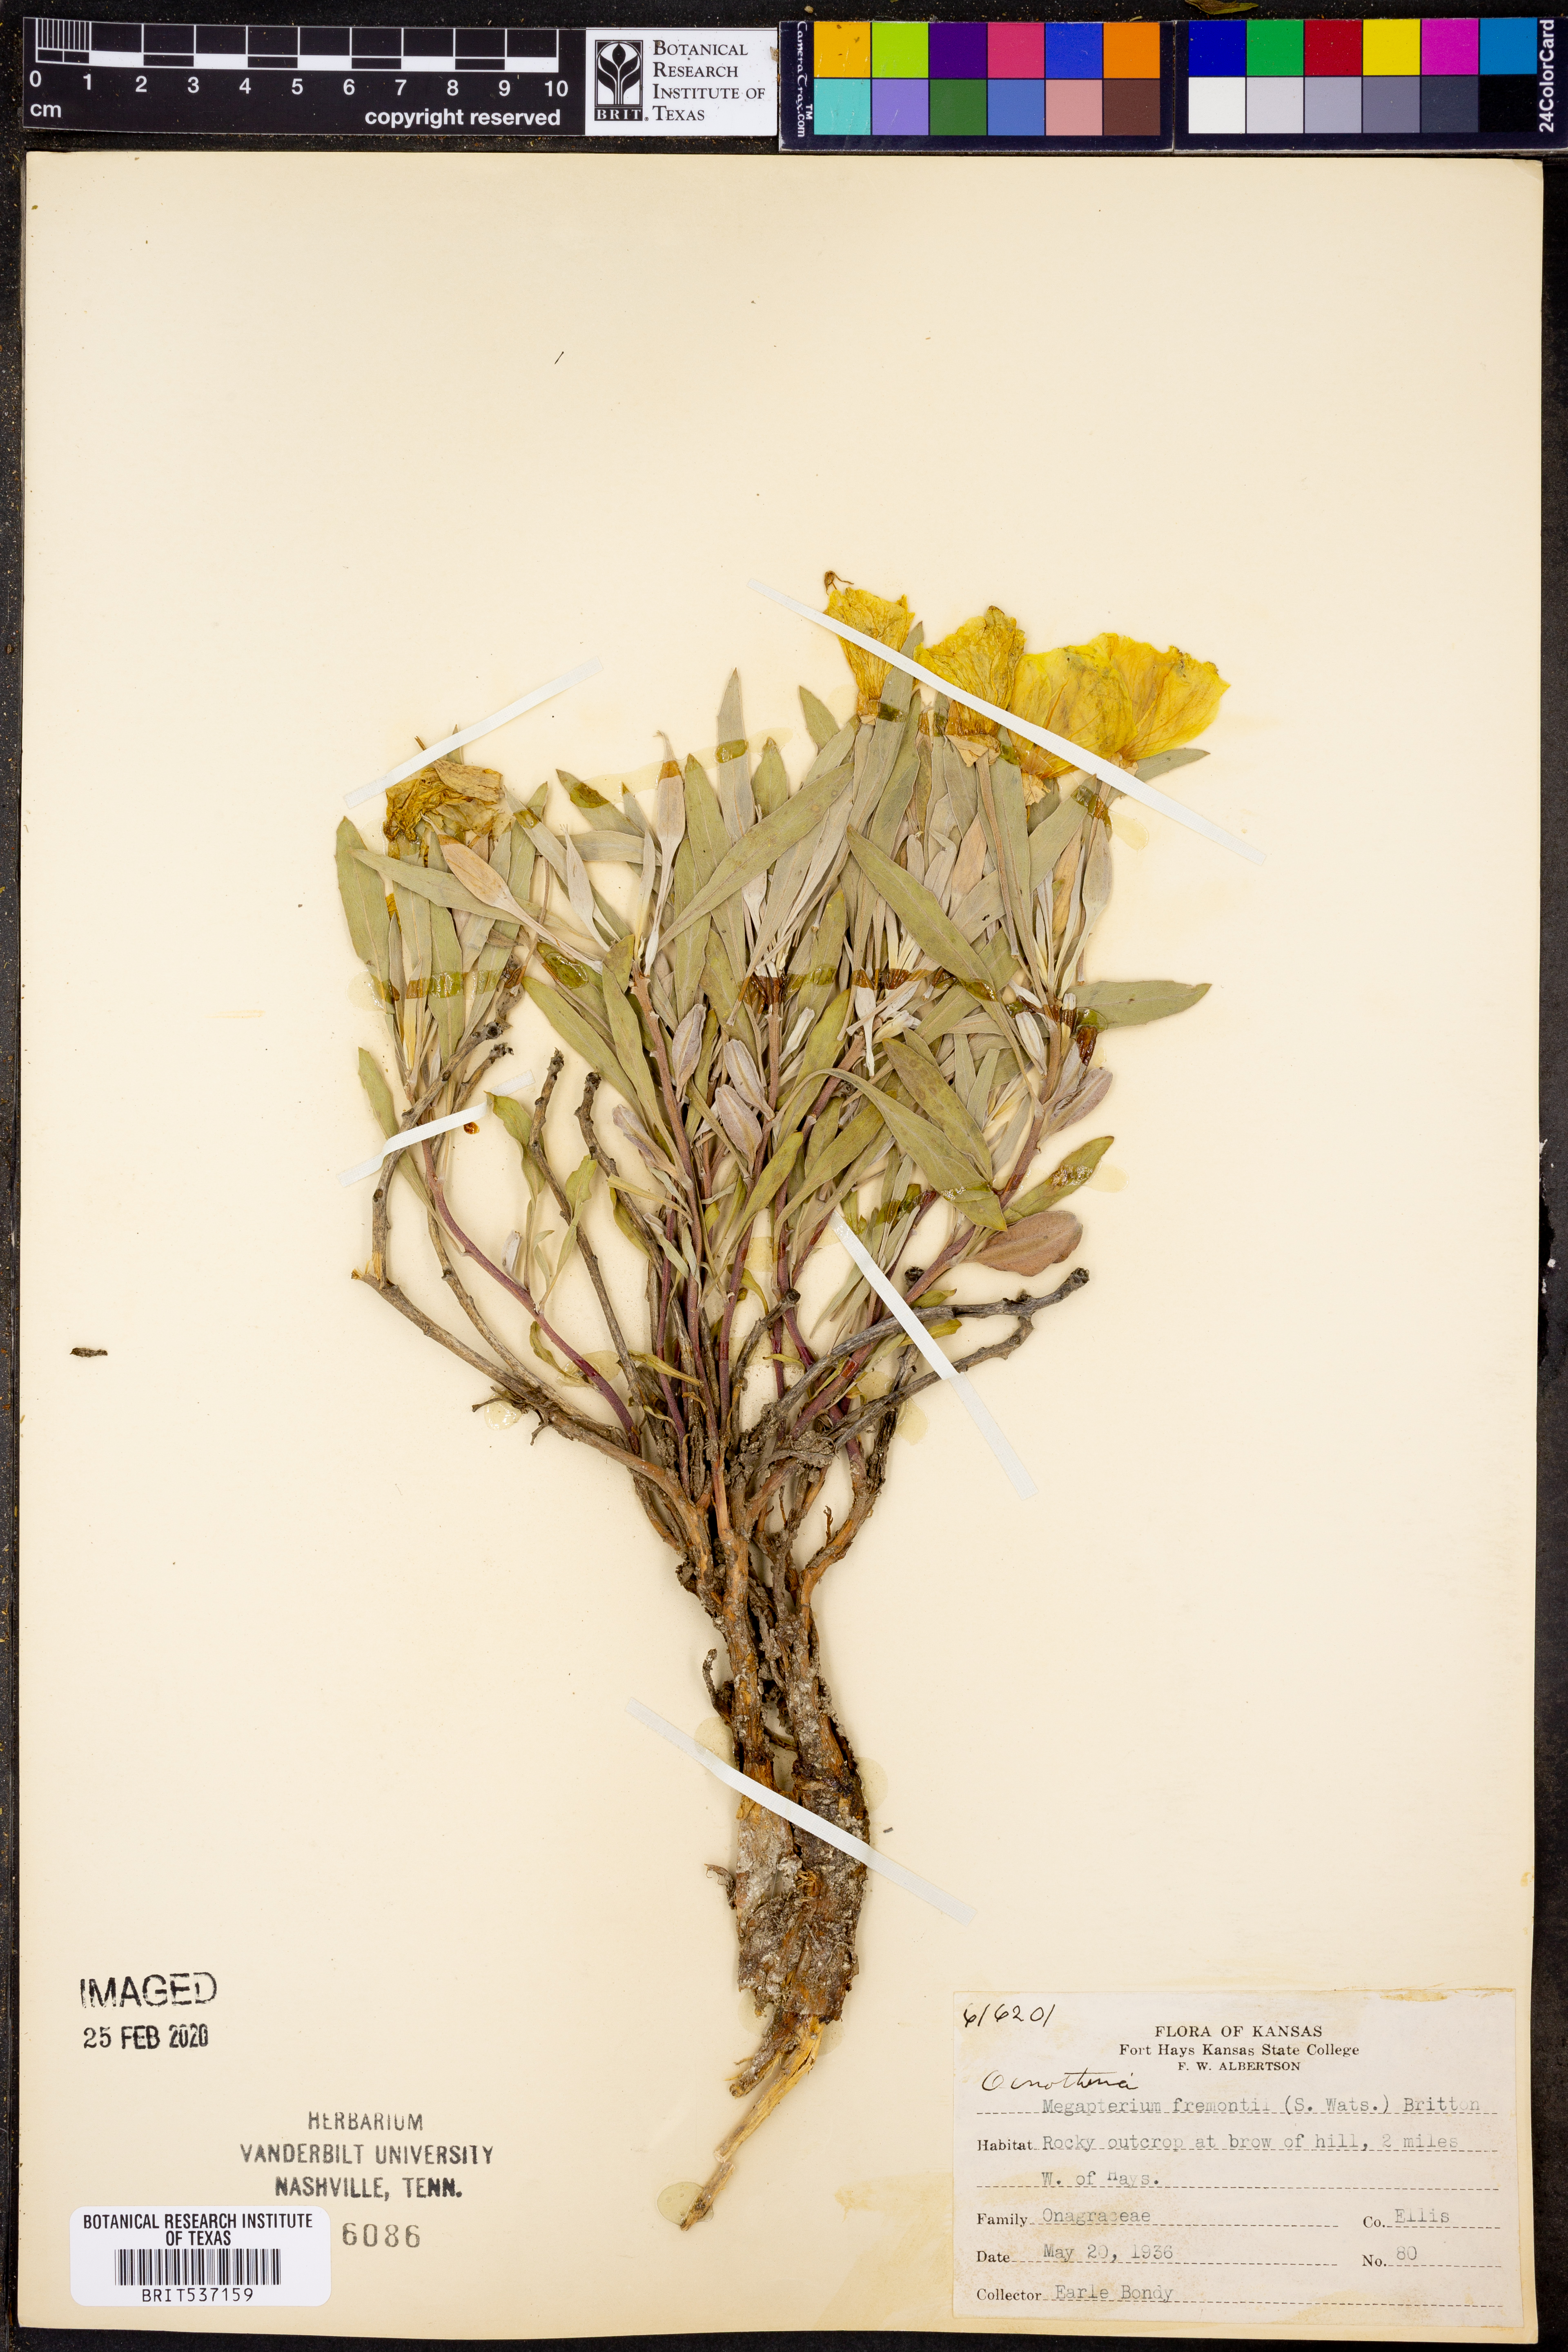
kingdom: Plantae
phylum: Tracheophyta
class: Magnoliopsida
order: Myrtales
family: Onagraceae
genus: Oenothera
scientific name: Oenothera macrocarpa
